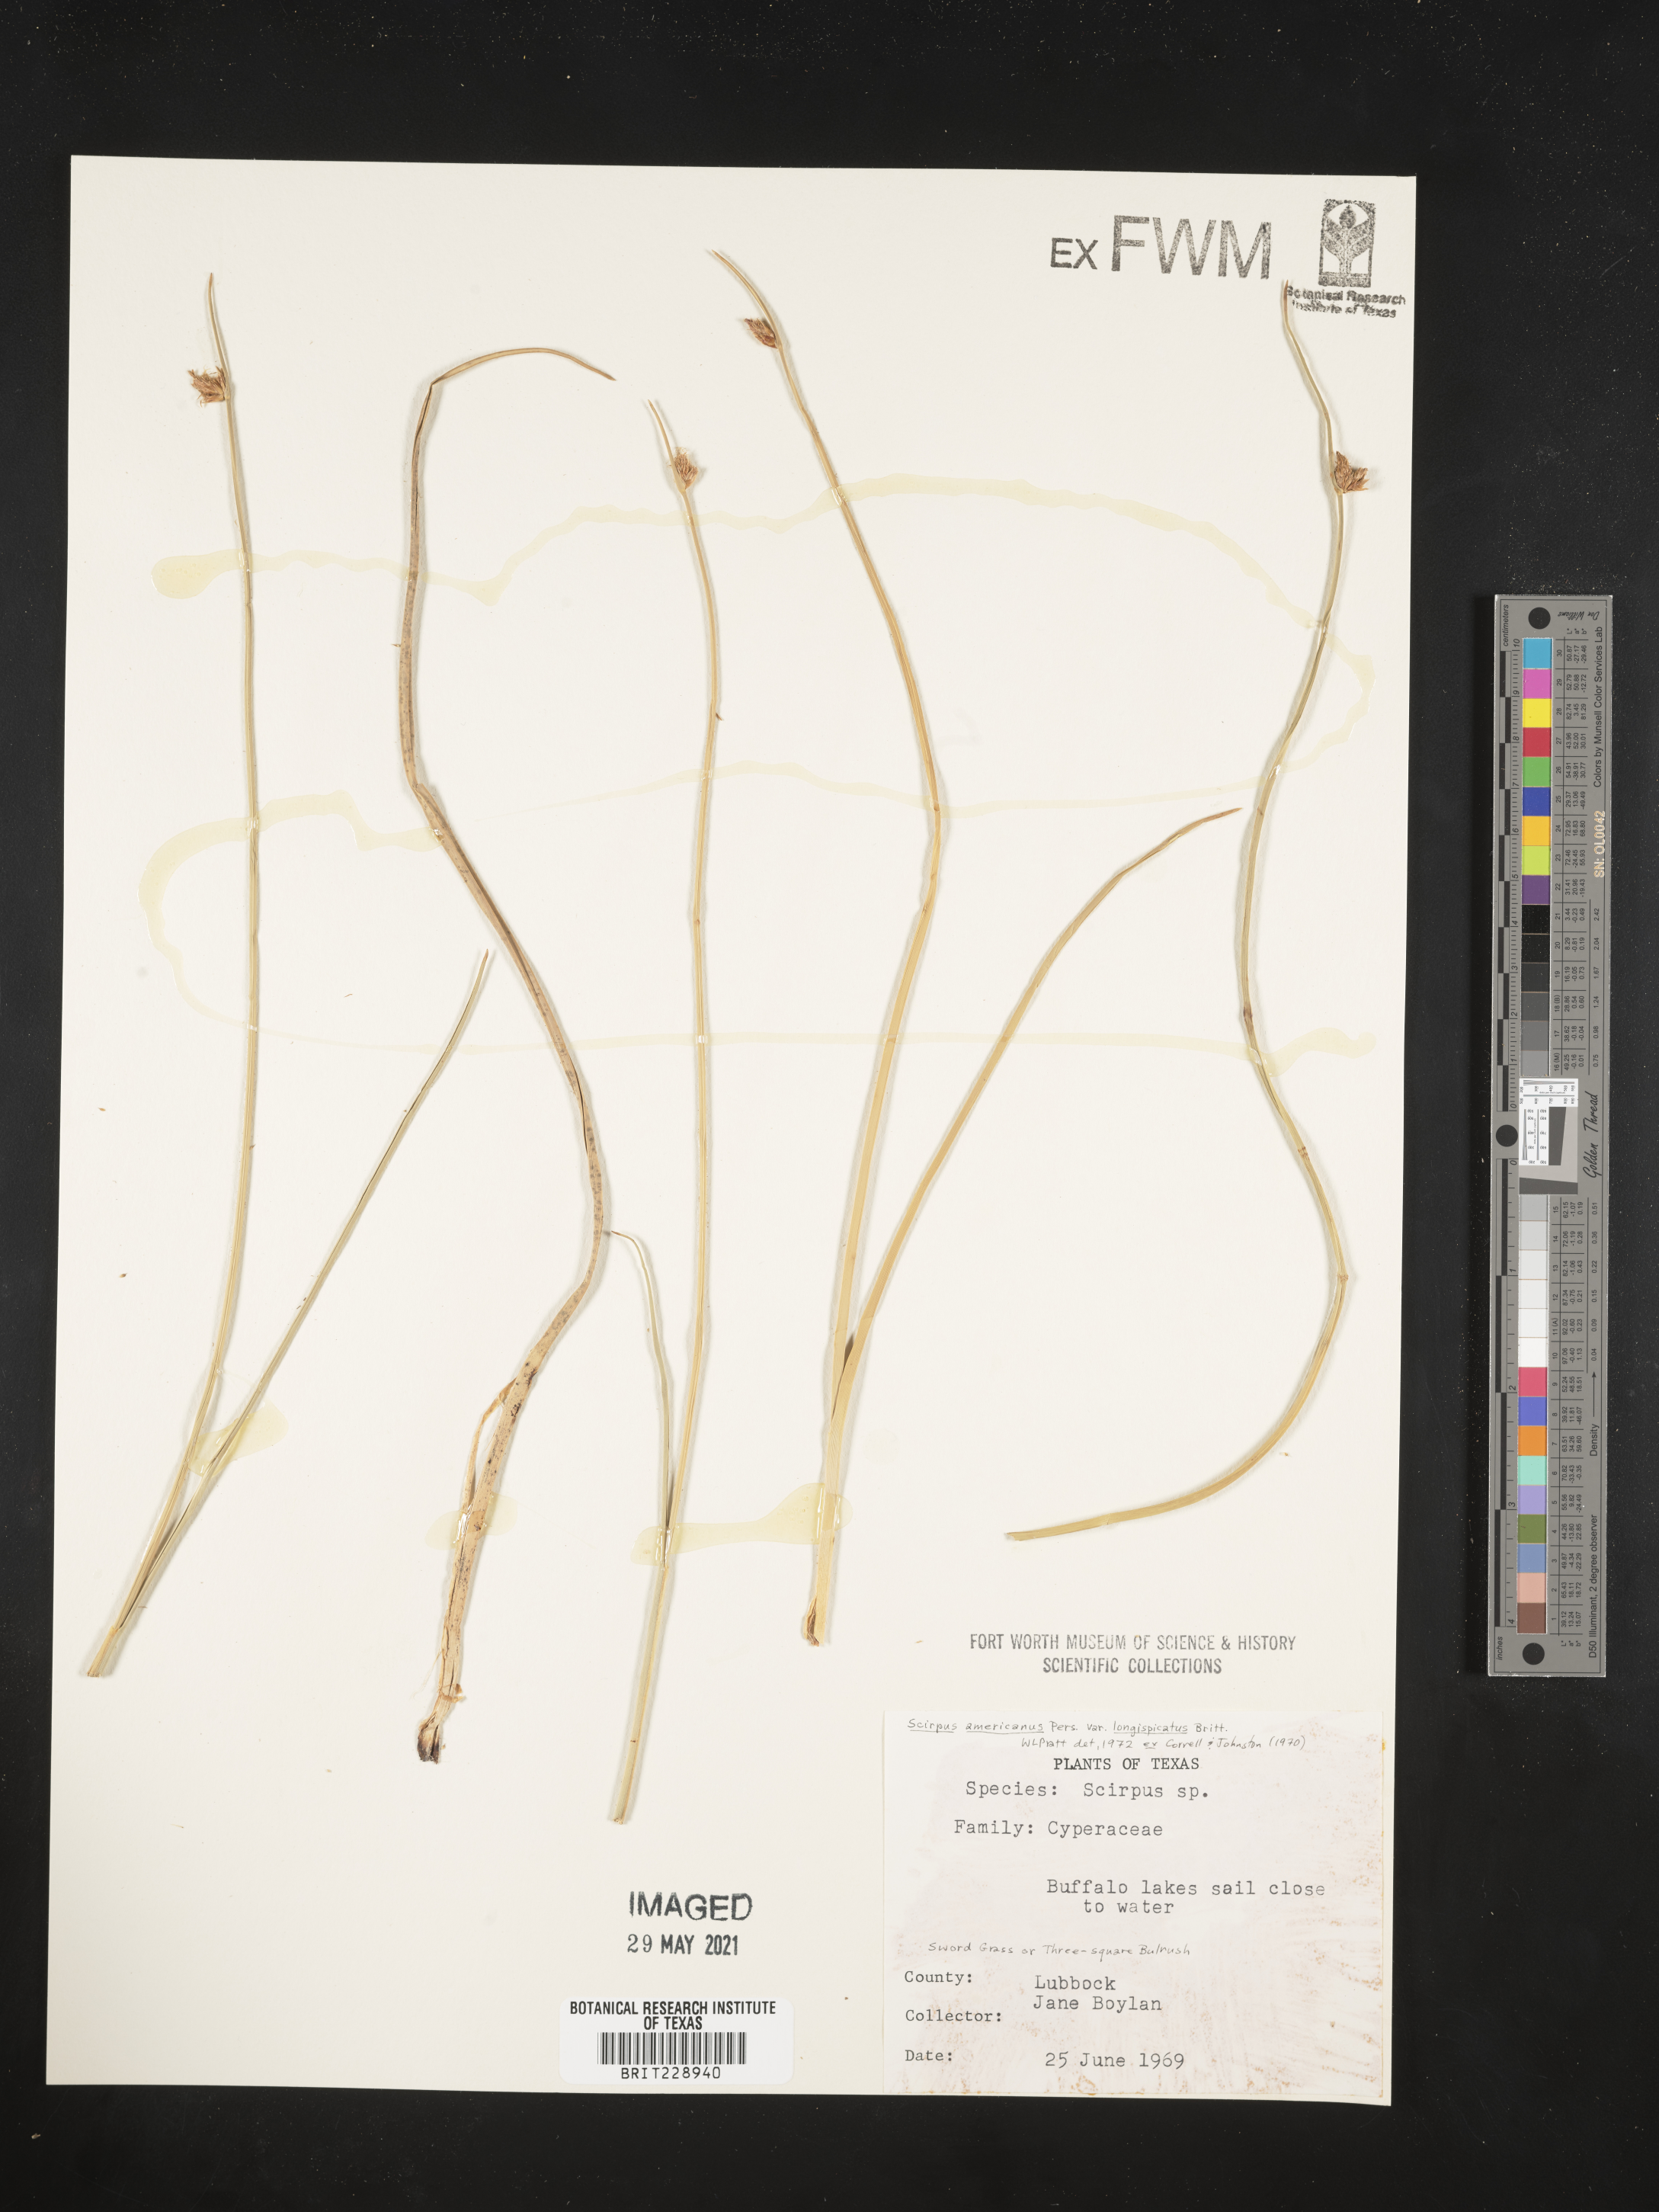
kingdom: Plantae
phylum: Tracheophyta
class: Liliopsida
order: Poales
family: Cyperaceae
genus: Schoenoplectus
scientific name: Schoenoplectus pungens
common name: Sharp club-rush
